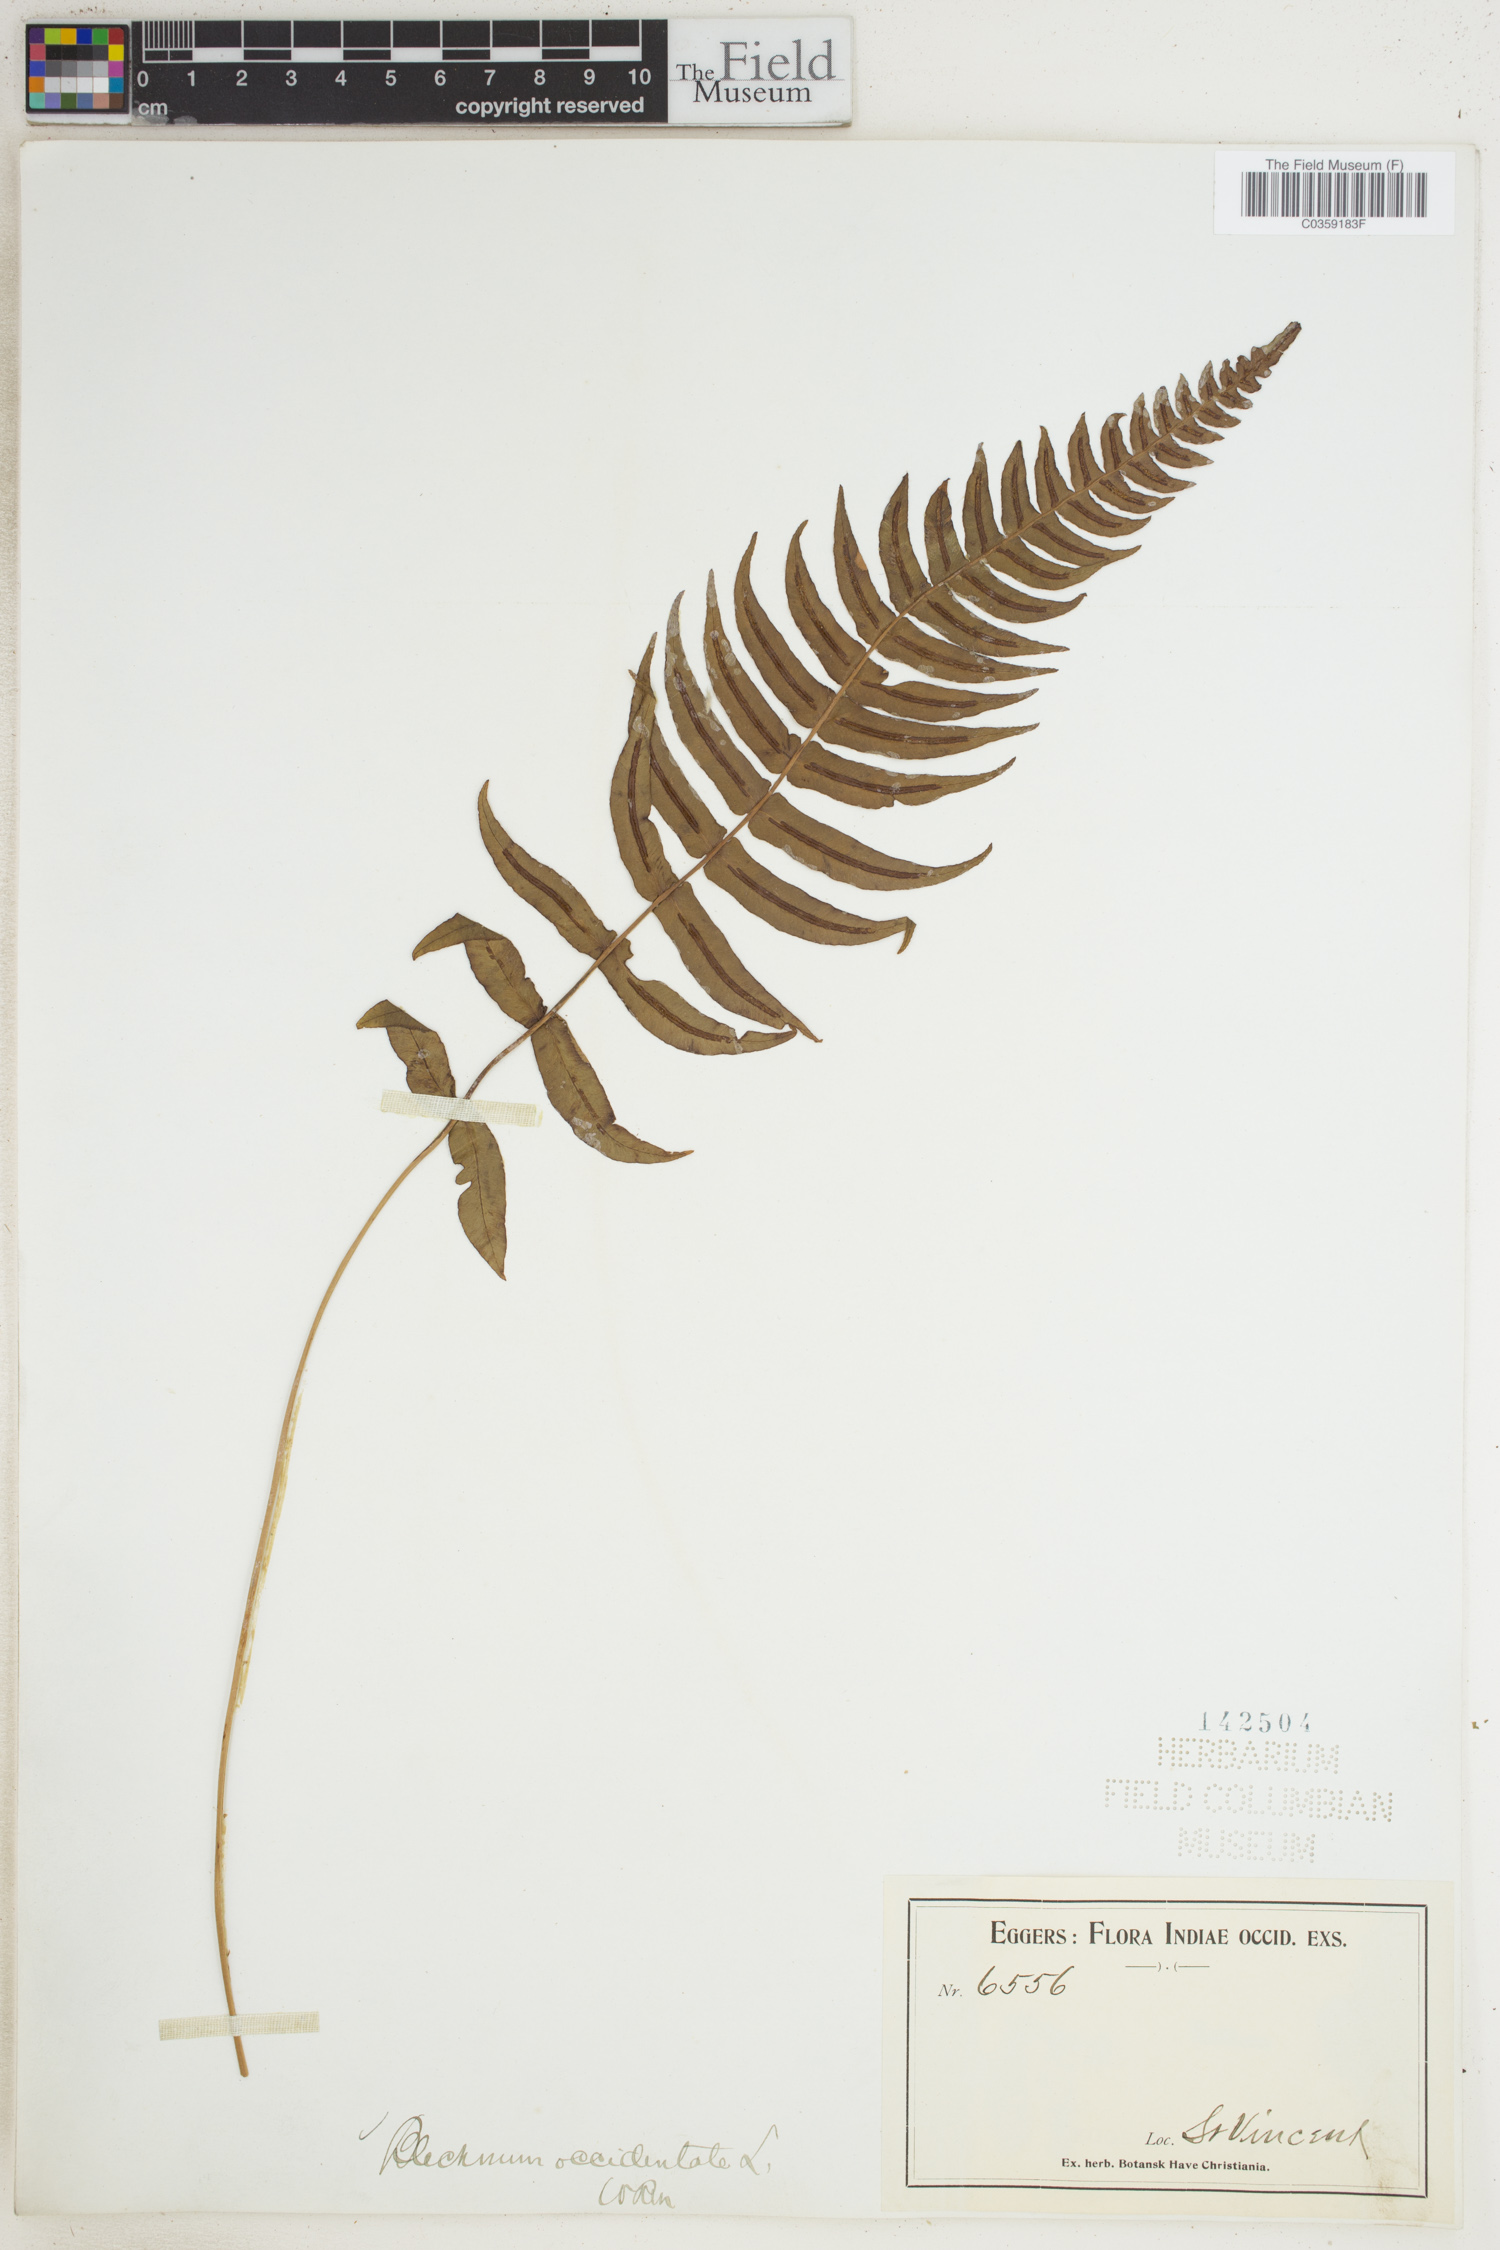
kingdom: Plantae
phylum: Tracheophyta
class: Polypodiopsida
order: Polypodiales
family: Blechnaceae
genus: Blechnum
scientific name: Blechnum occidentale
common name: Hammock fern
